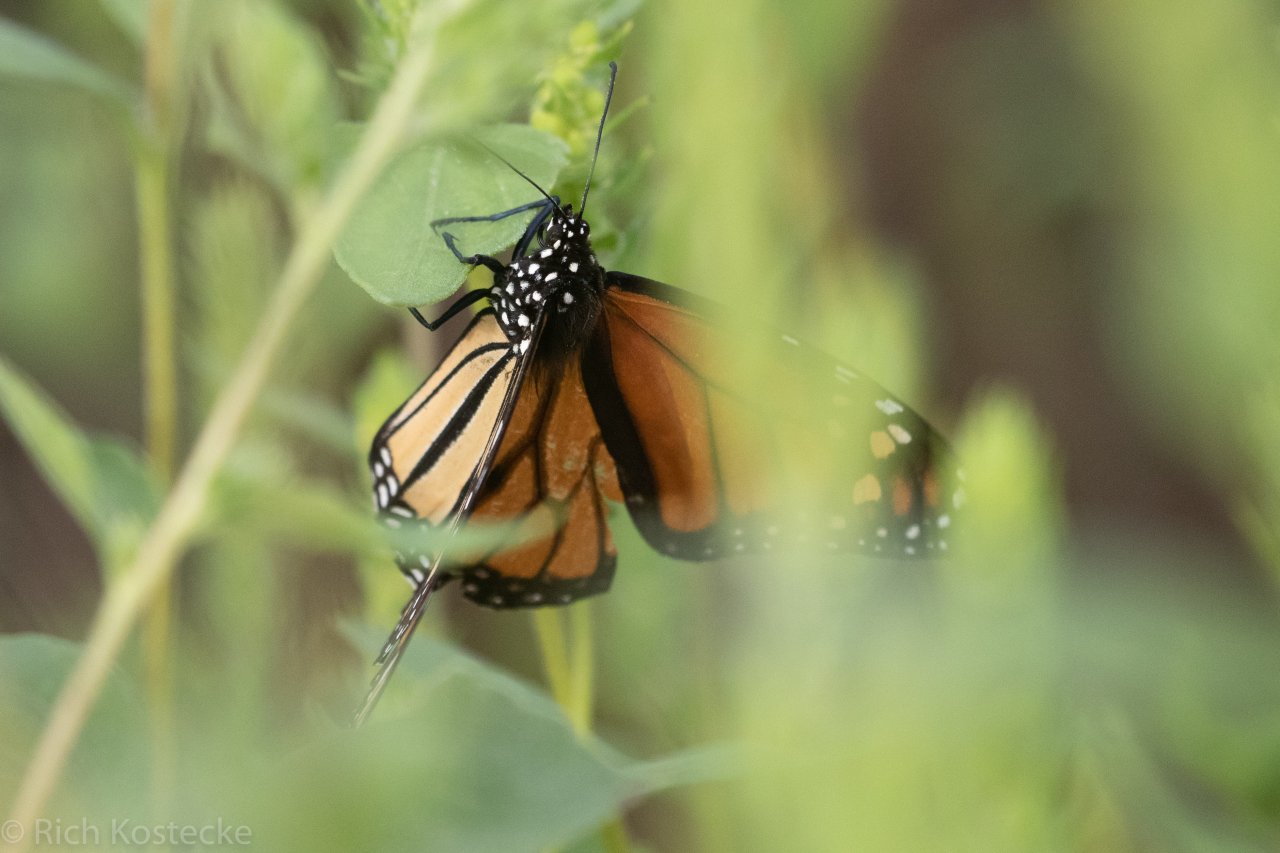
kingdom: Animalia
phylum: Arthropoda
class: Insecta
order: Lepidoptera
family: Nymphalidae
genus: Danaus
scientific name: Danaus plexippus
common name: Monarch
